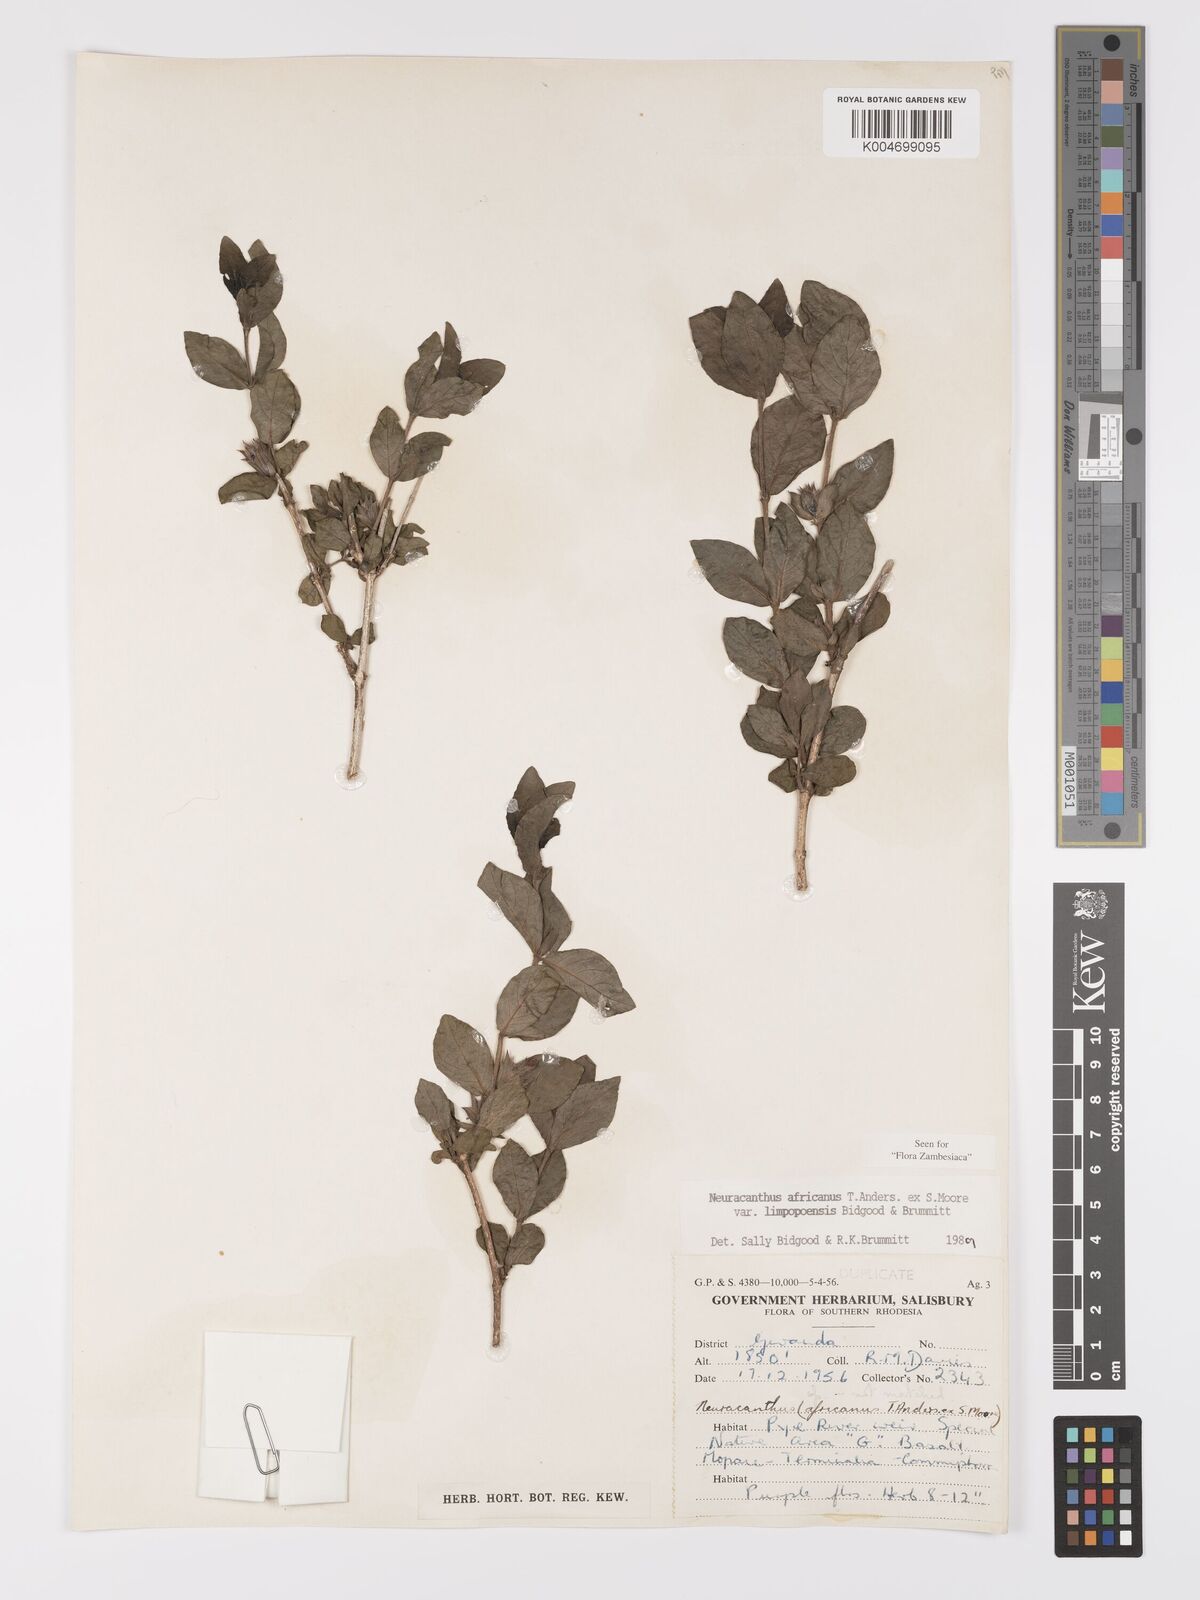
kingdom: Plantae
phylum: Tracheophyta
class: Magnoliopsida
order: Lamiales
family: Acanthaceae
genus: Neuracanthus
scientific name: Neuracanthus africanus
